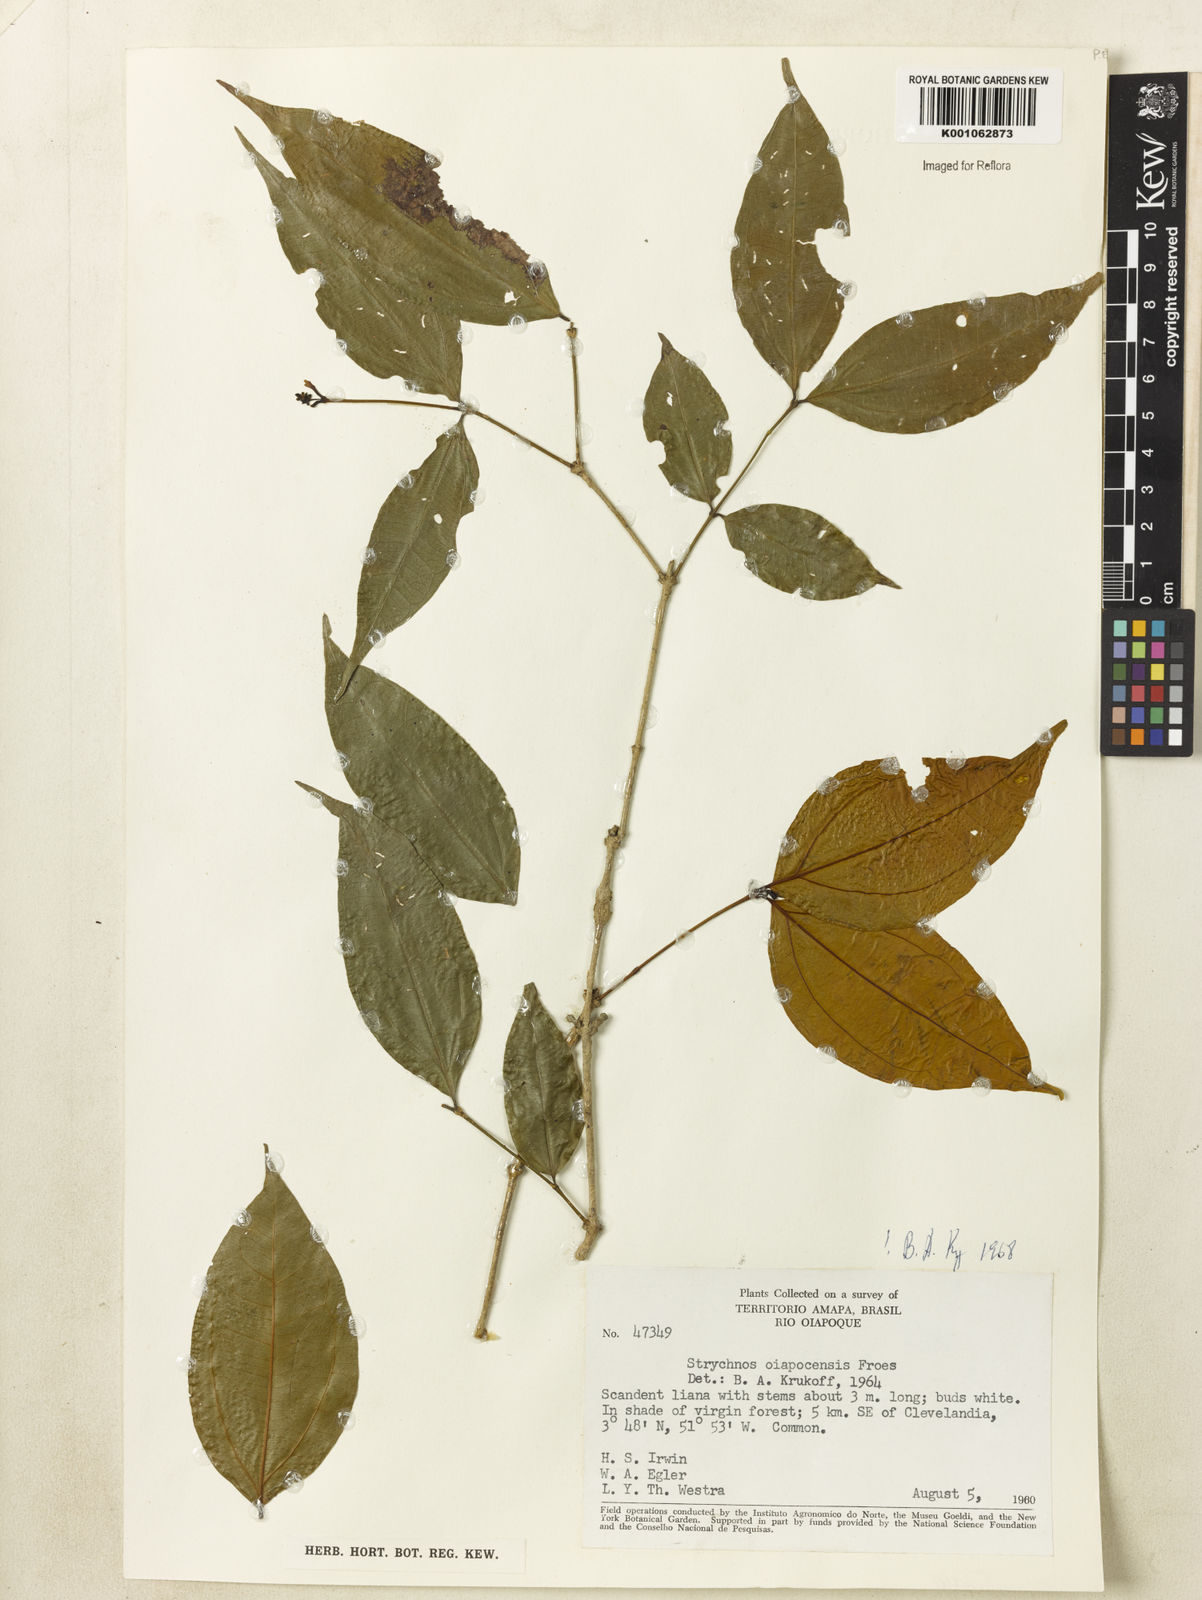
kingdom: Plantae
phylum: Tracheophyta
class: Magnoliopsida
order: Gentianales
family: Loganiaceae
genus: Strychnos
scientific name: Strychnos
